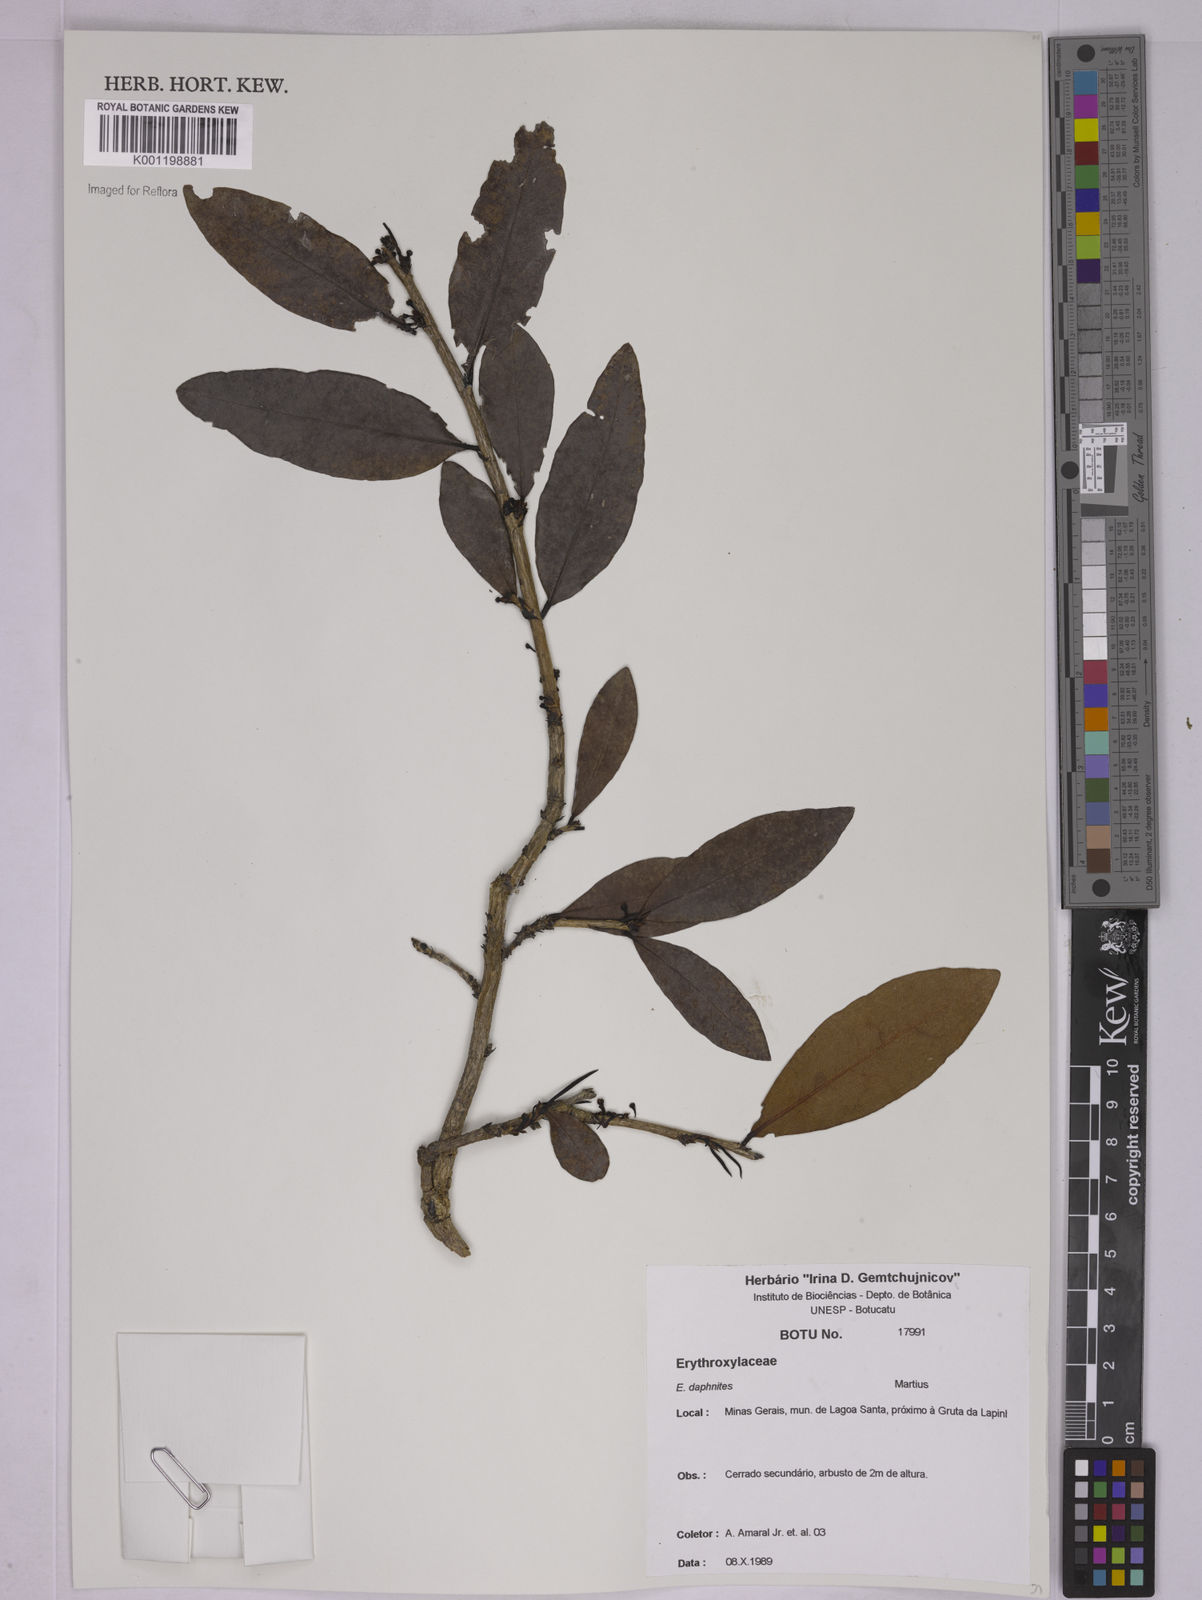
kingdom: Plantae
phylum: Tracheophyta
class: Magnoliopsida
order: Malpighiales
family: Erythroxylaceae
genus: Erythroxylum
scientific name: Erythroxylum daphnites
